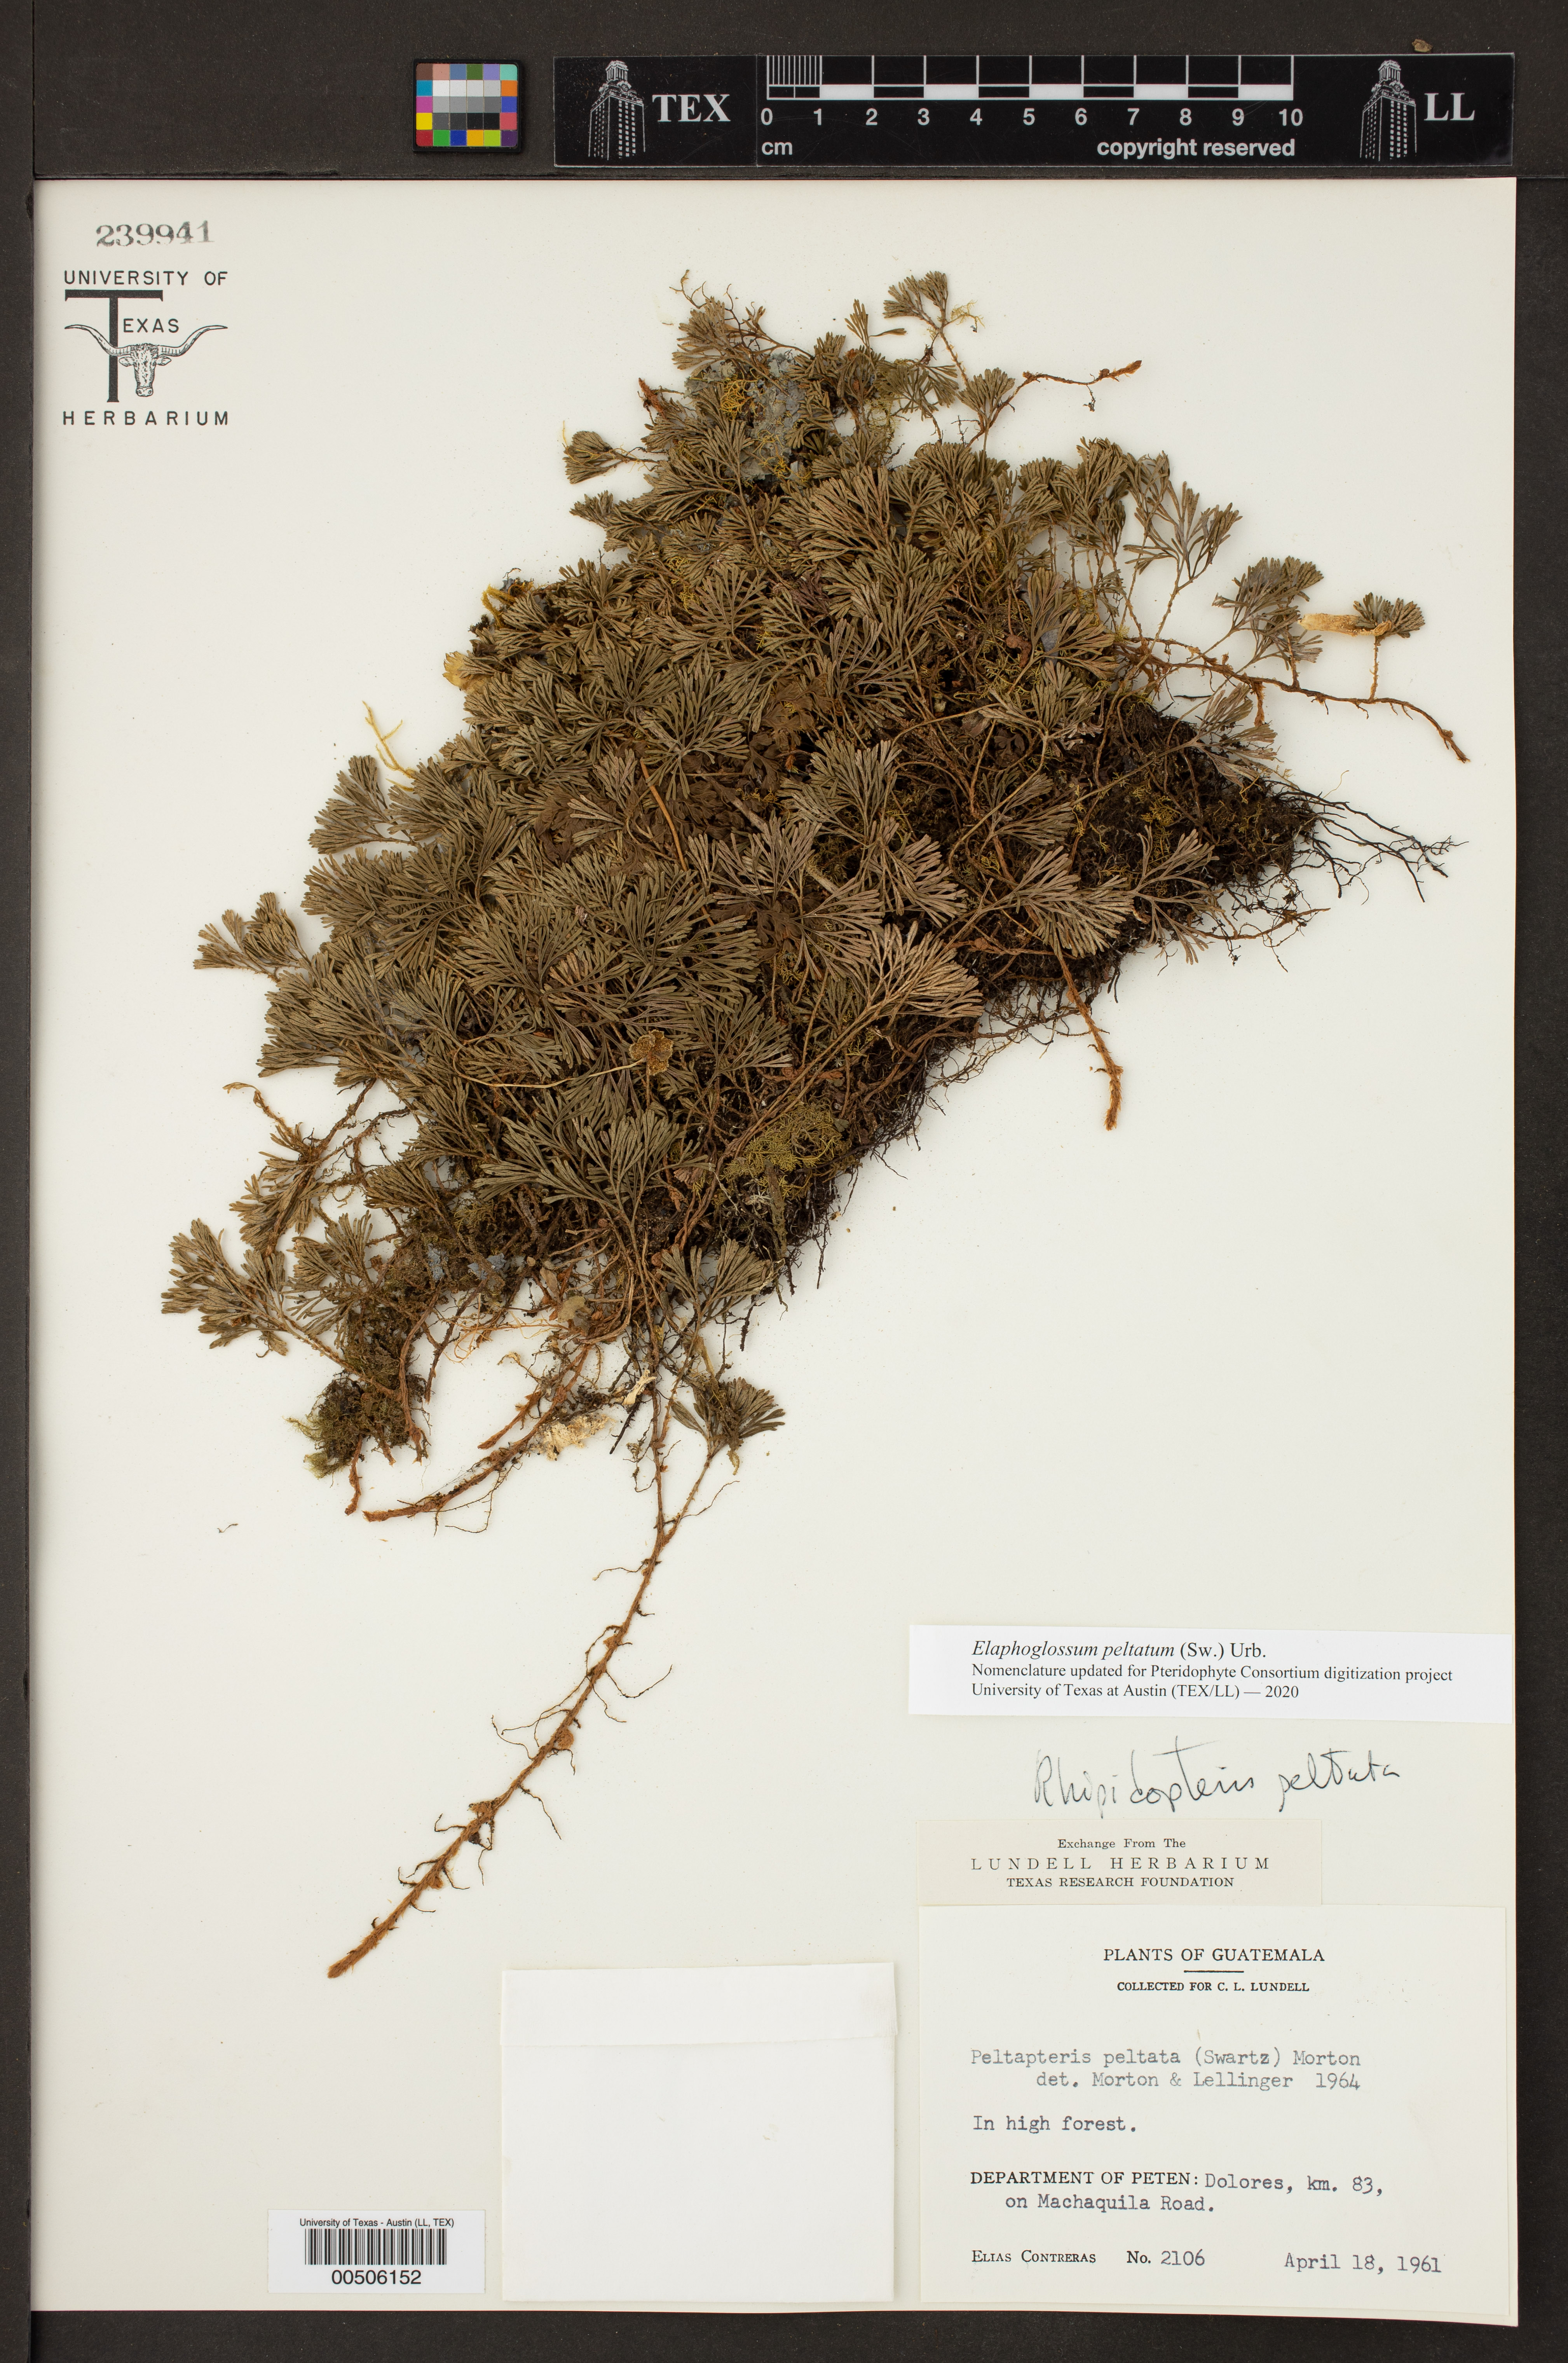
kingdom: Plantae
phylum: Tracheophyta
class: Polypodiopsida
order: Polypodiales
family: Dryopteridaceae
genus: Elaphoglossum
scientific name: Elaphoglossum peltatum
